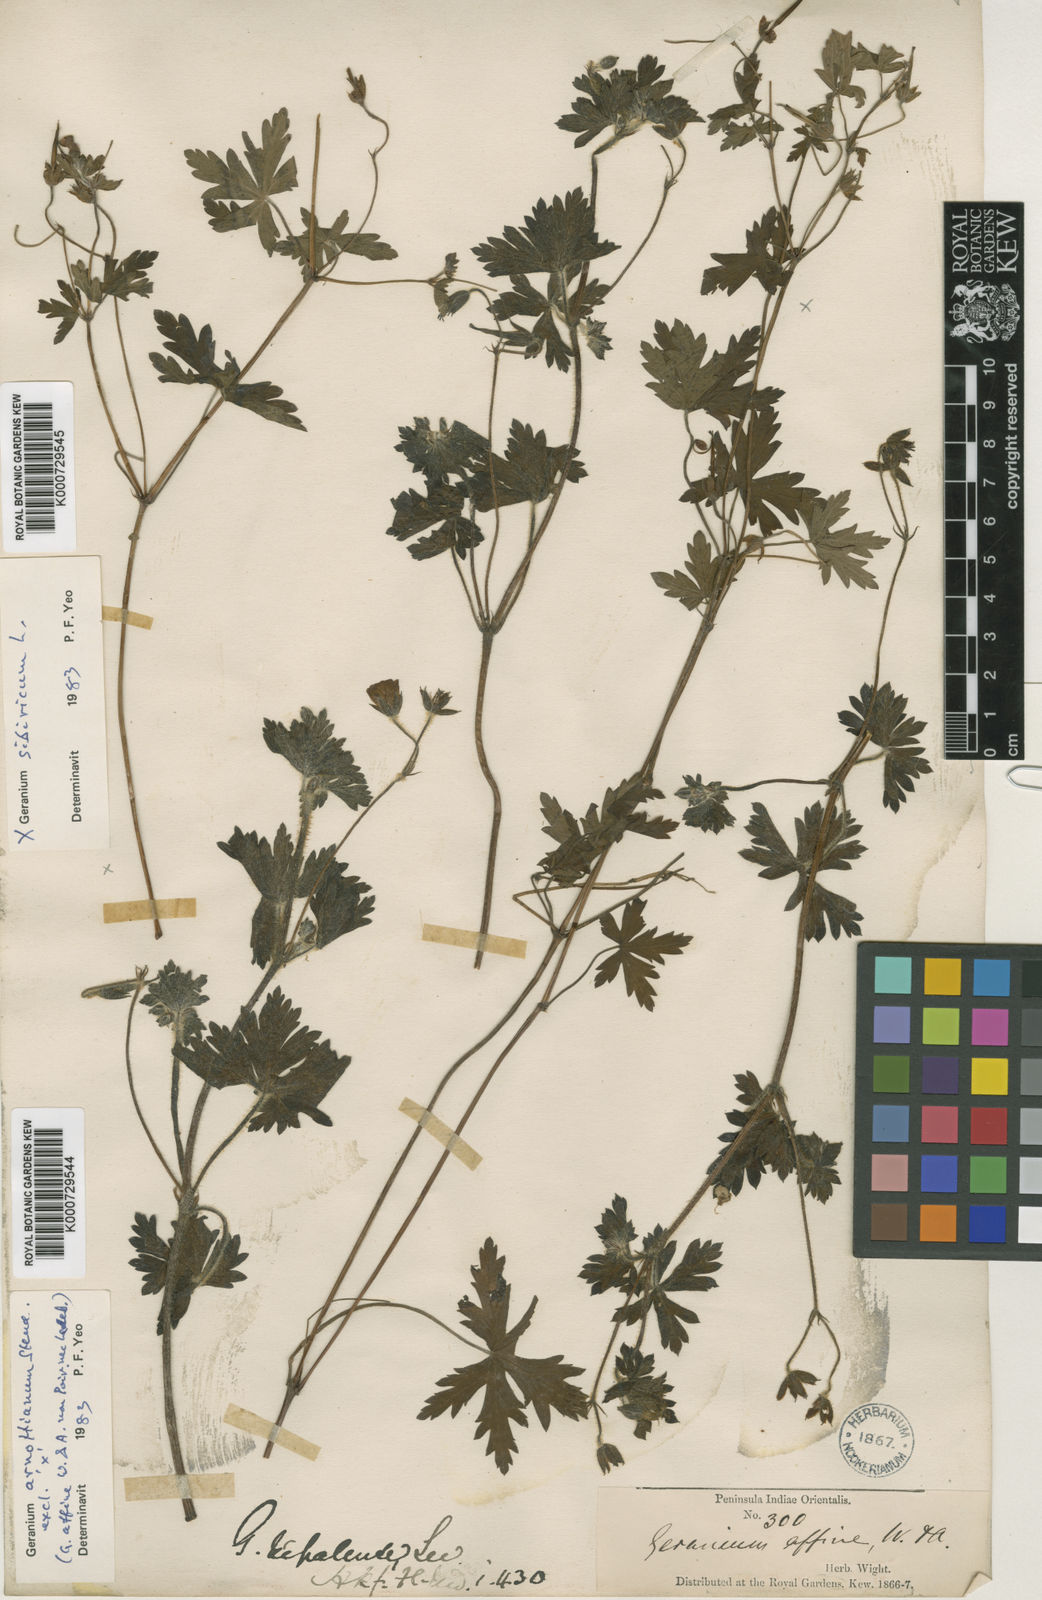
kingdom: Plantae
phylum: Tracheophyta
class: Magnoliopsida
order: Geraniales
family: Geraniaceae
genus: Geranium
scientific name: Geranium arnottianum
